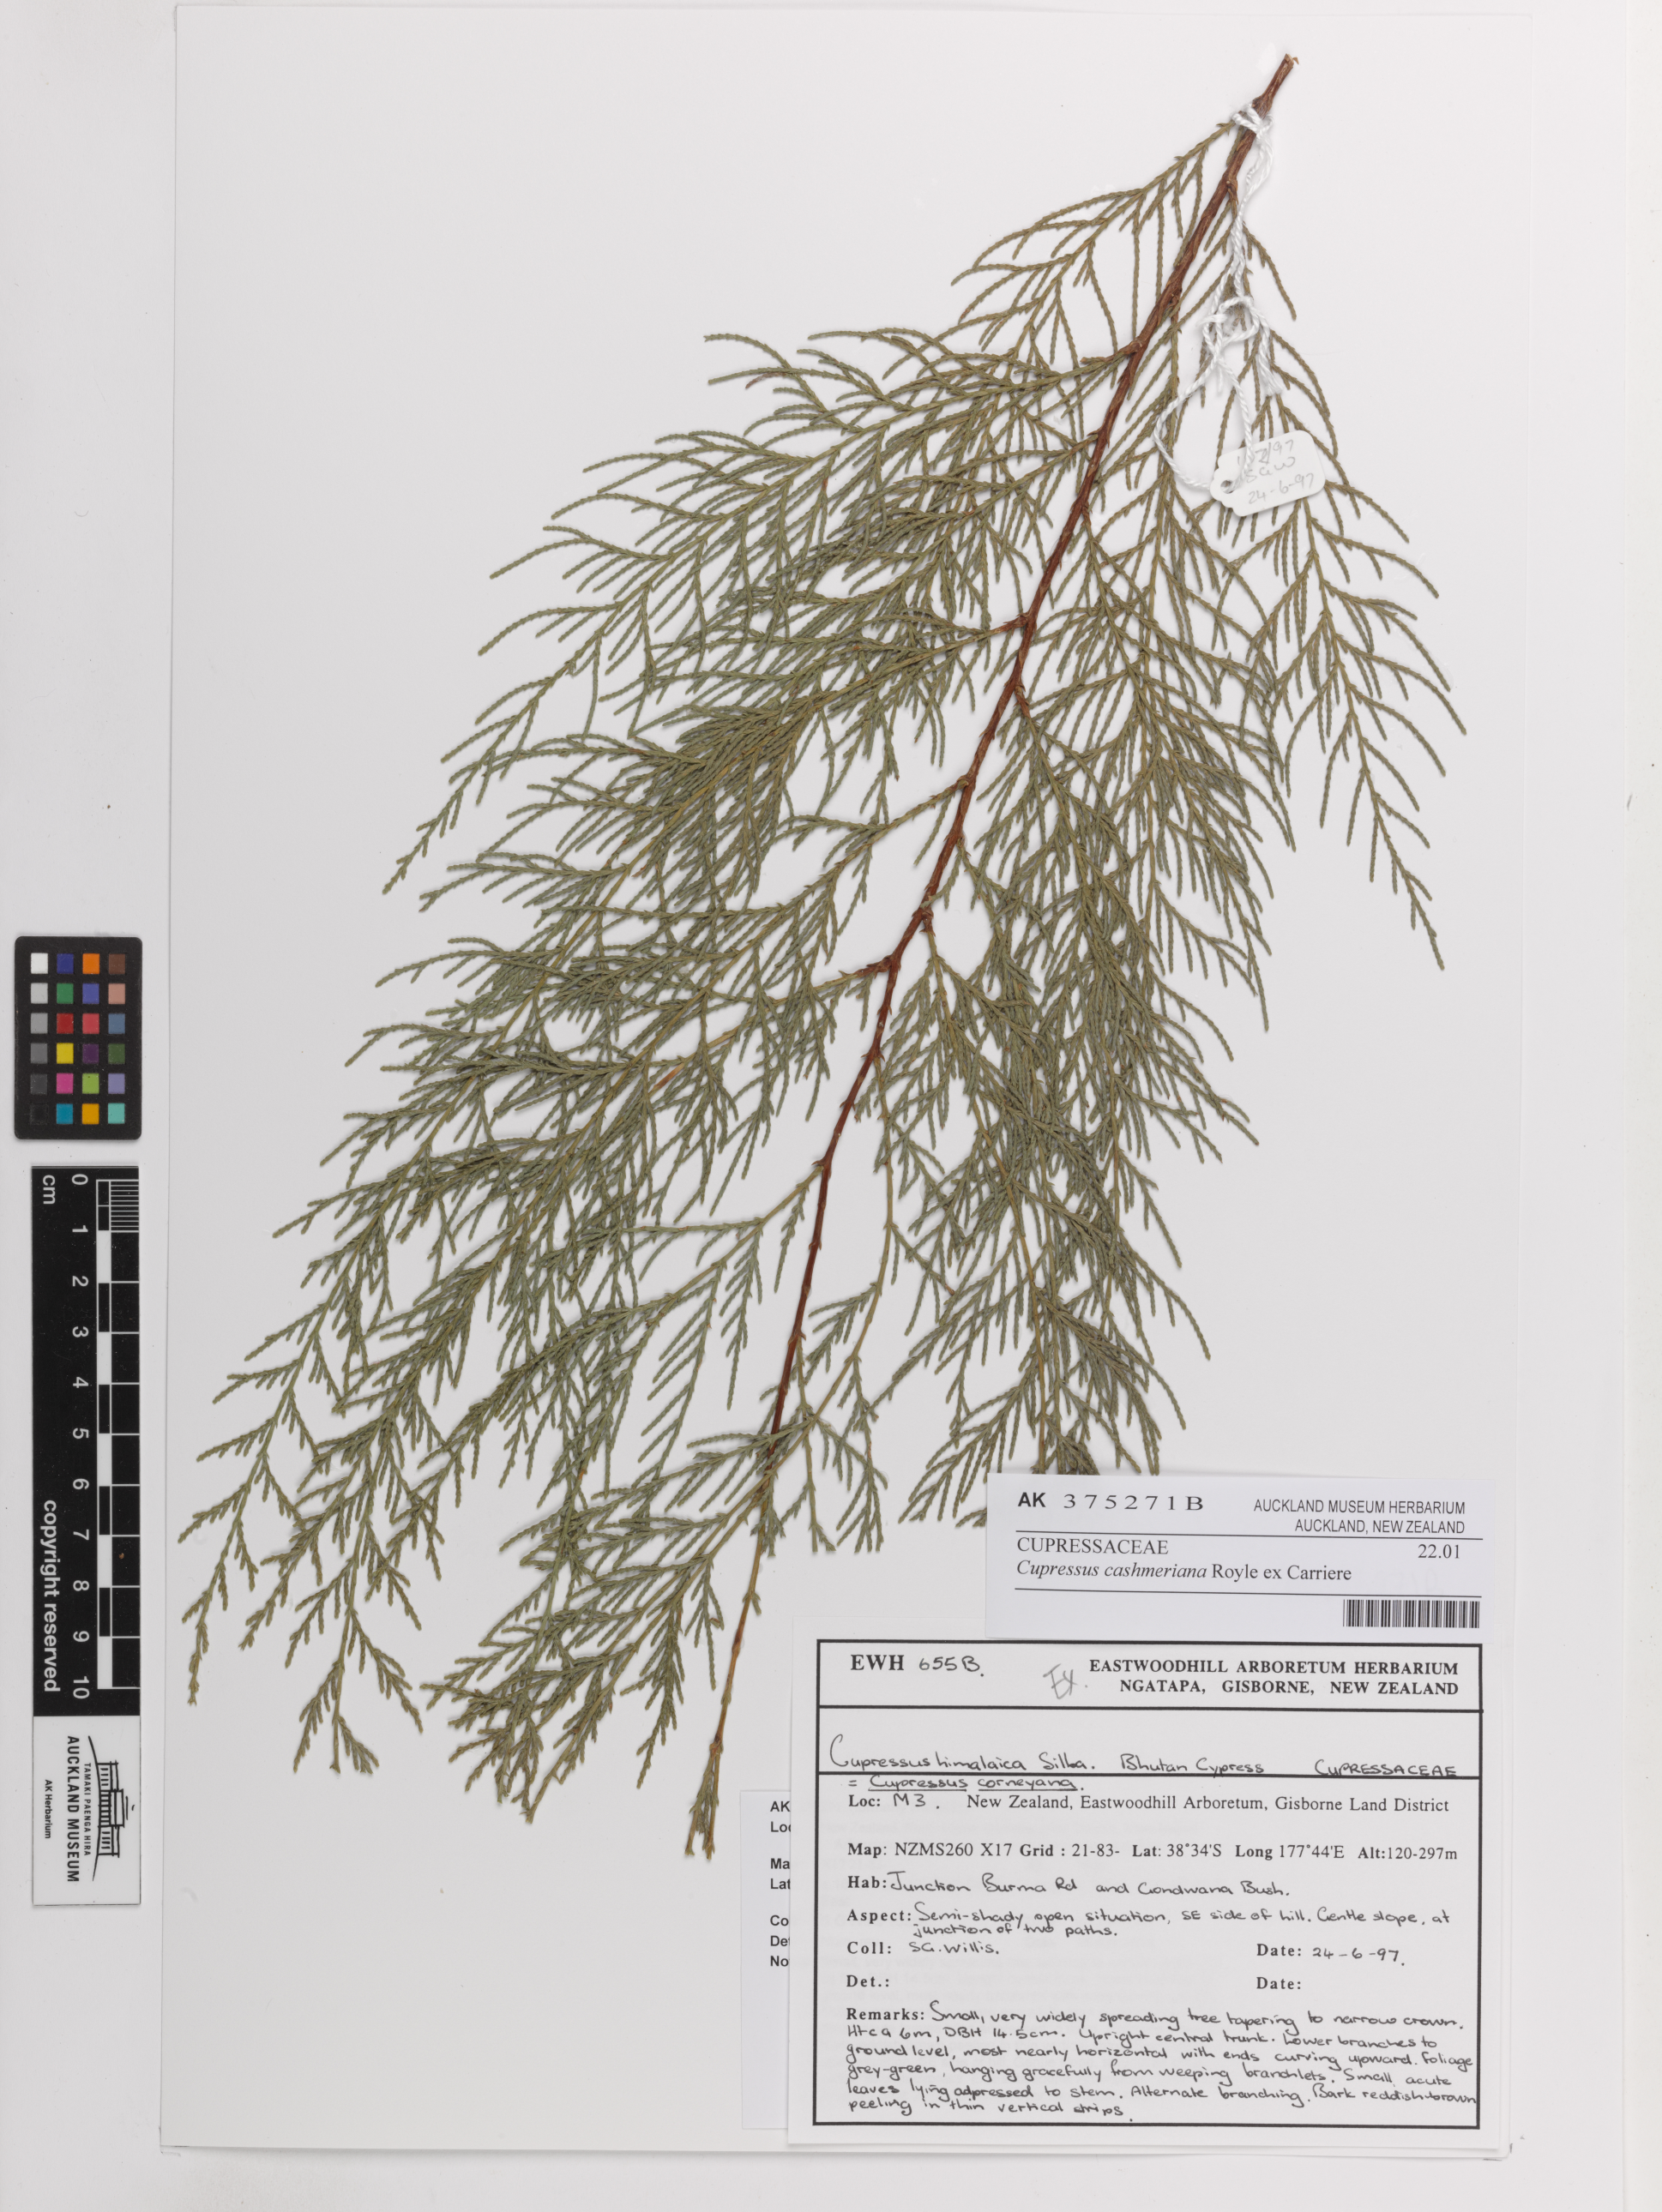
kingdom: Plantae
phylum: Tracheophyta
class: Pinopsida
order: Pinales
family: Cupressaceae
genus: Cupressus
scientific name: Cupressus cashmeriana
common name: Bhutan cypress
